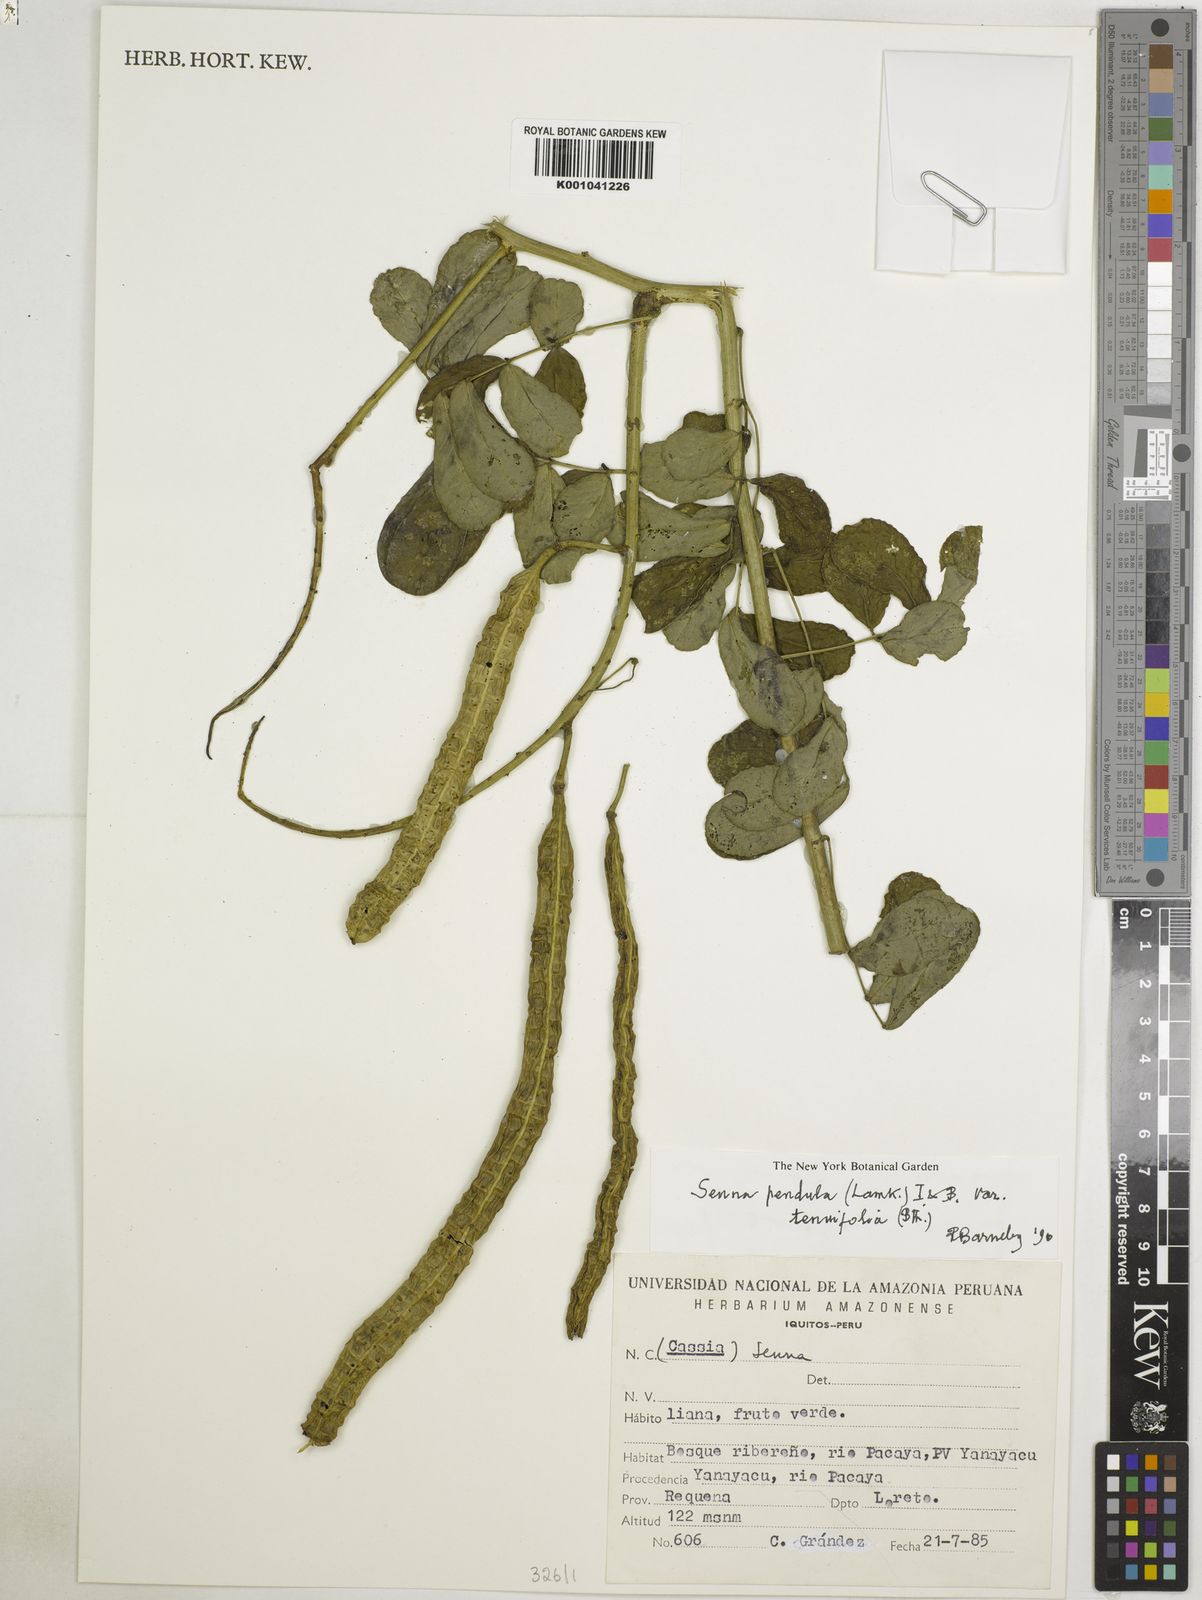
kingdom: Plantae
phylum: Tracheophyta
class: Magnoliopsida
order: Fabales
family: Fabaceae
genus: Senna
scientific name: Senna pendula
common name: Easter cassia
